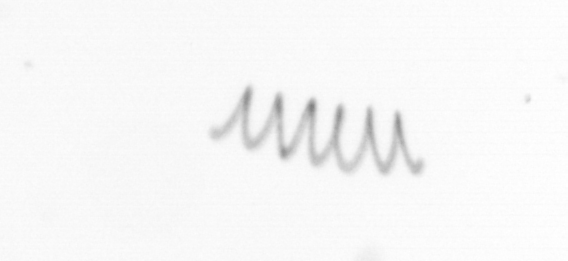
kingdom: Chromista
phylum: Ochrophyta
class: Bacillariophyceae
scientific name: Bacillariophyceae
